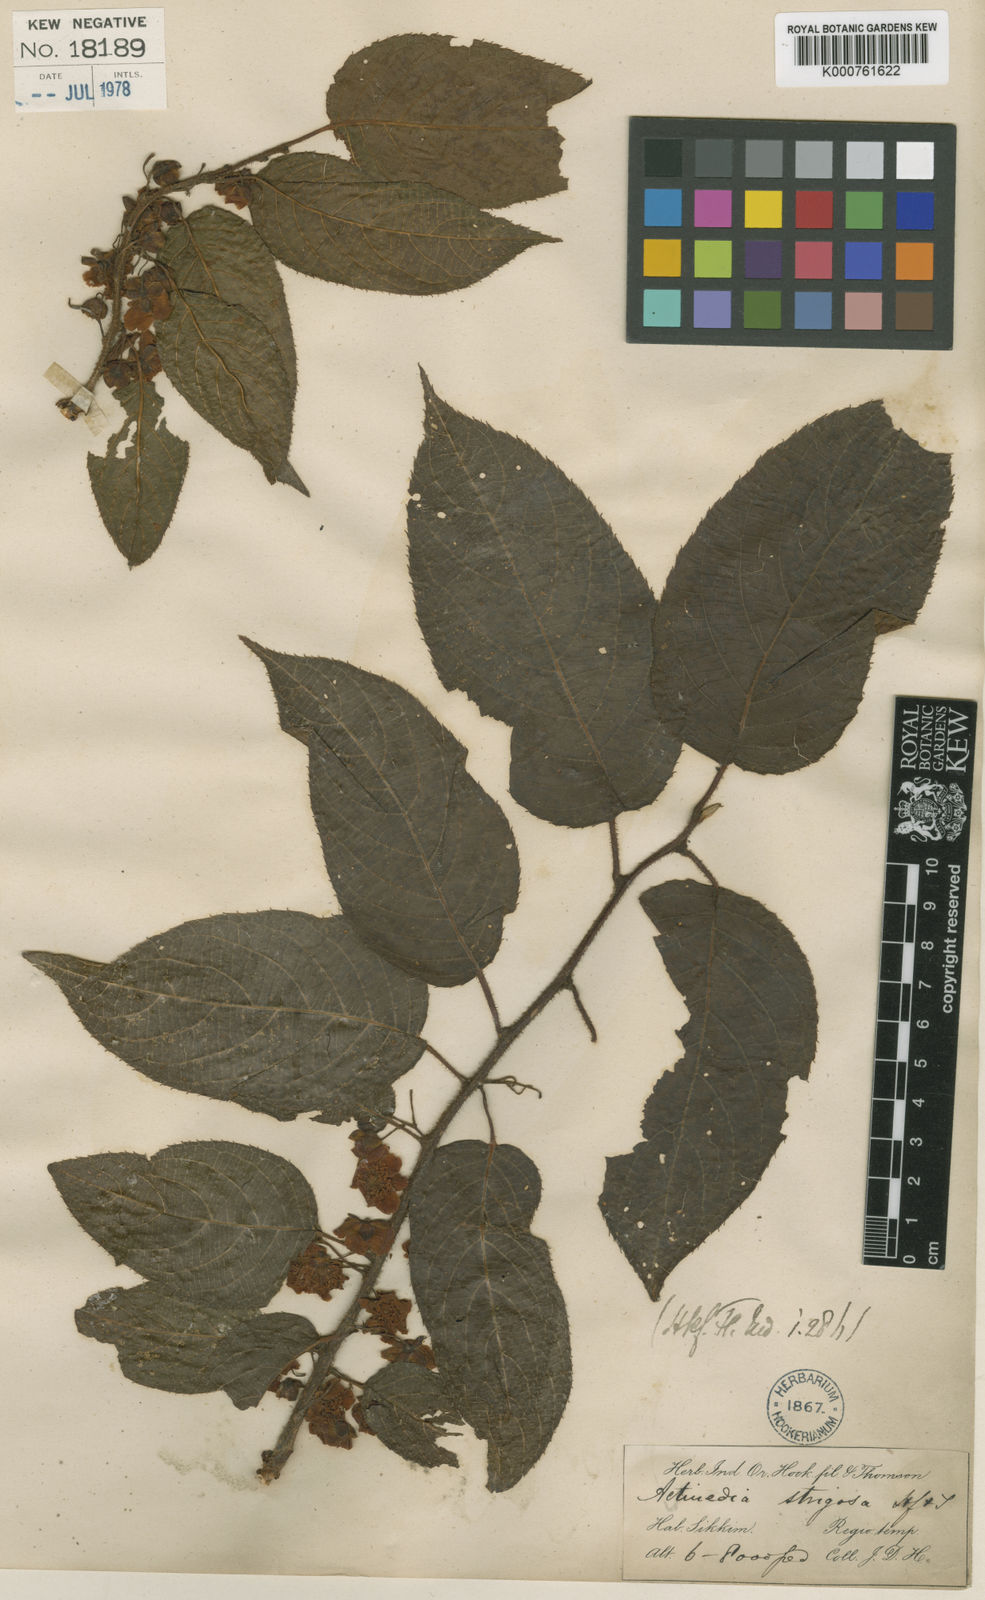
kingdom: Plantae
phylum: Tracheophyta
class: Magnoliopsida
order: Ericales
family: Actinidiaceae
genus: Actinidia
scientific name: Actinidia strigosa
